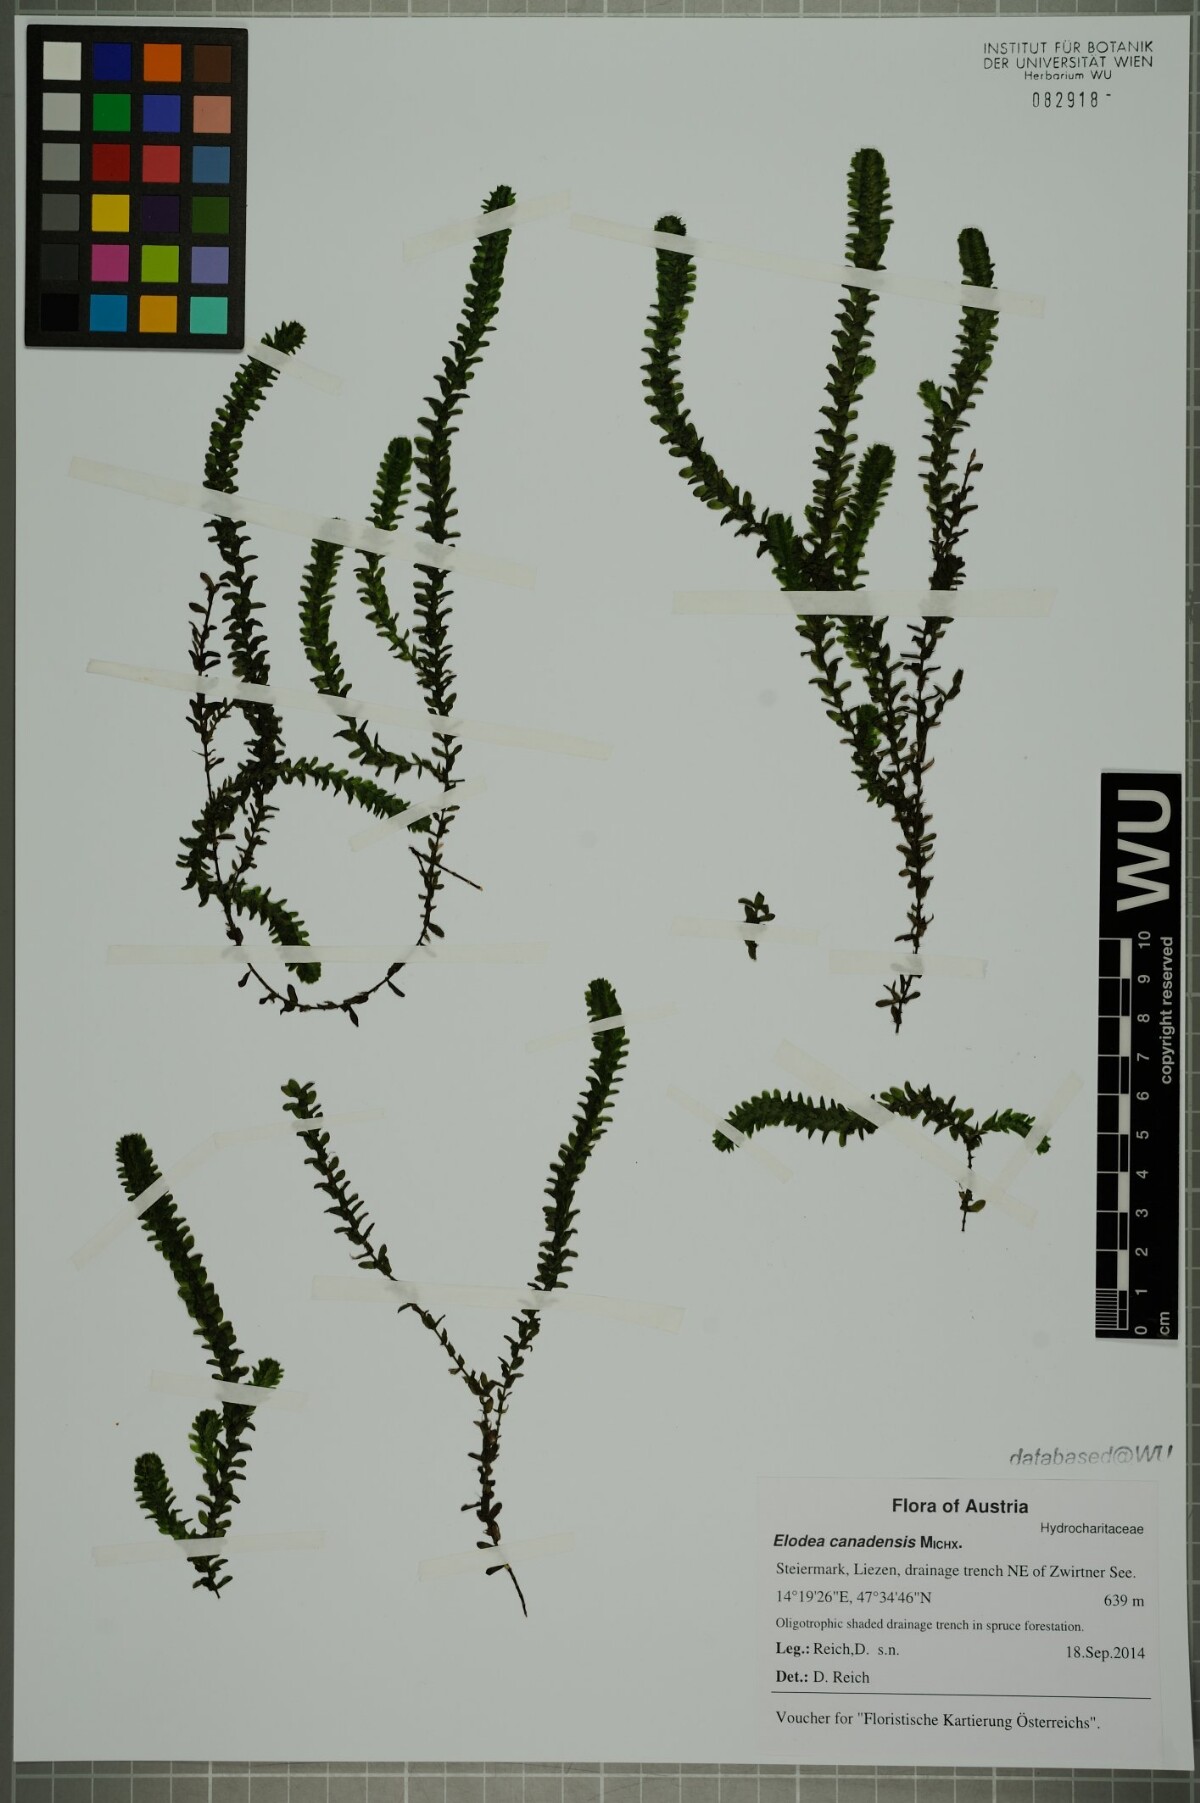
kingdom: Plantae
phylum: Tracheophyta
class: Liliopsida
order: Alismatales
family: Hydrocharitaceae
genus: Elodea
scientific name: Elodea canadensis
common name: Canadian waterweed
